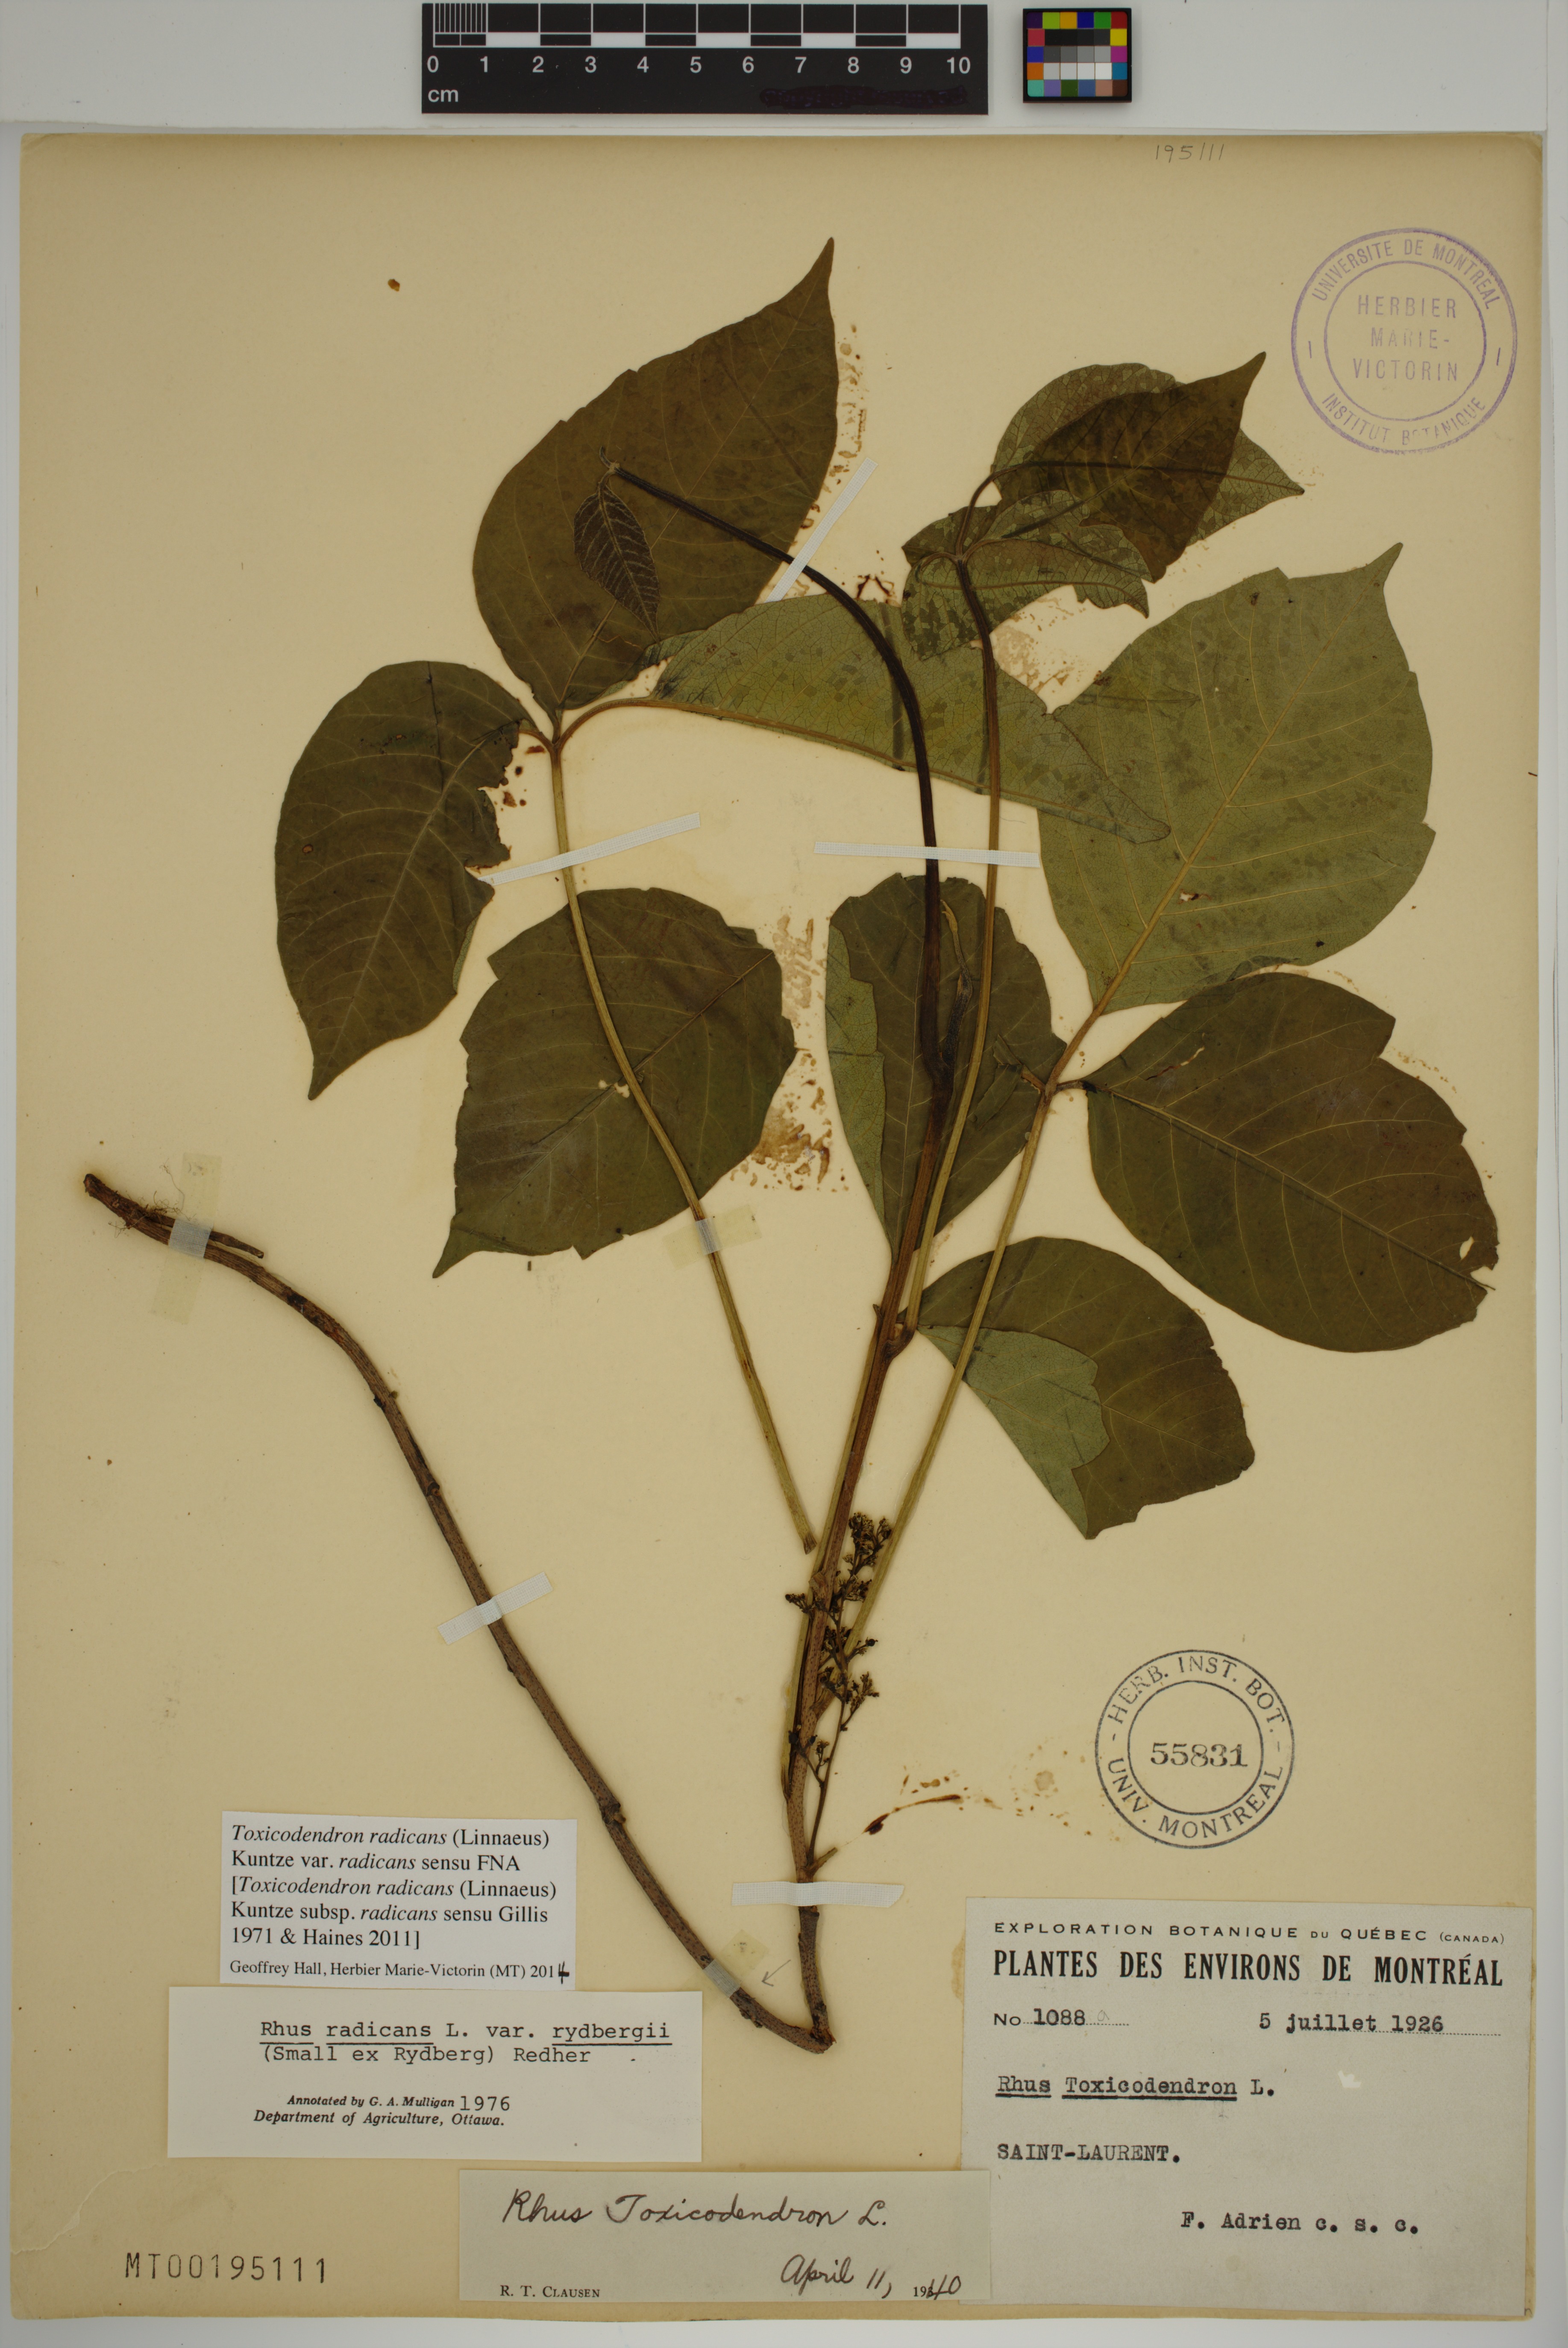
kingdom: Plantae
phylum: Tracheophyta
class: Magnoliopsida
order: Sapindales
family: Anacardiaceae
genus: Toxicodendron
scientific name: Toxicodendron radicans
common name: Poison ivy
